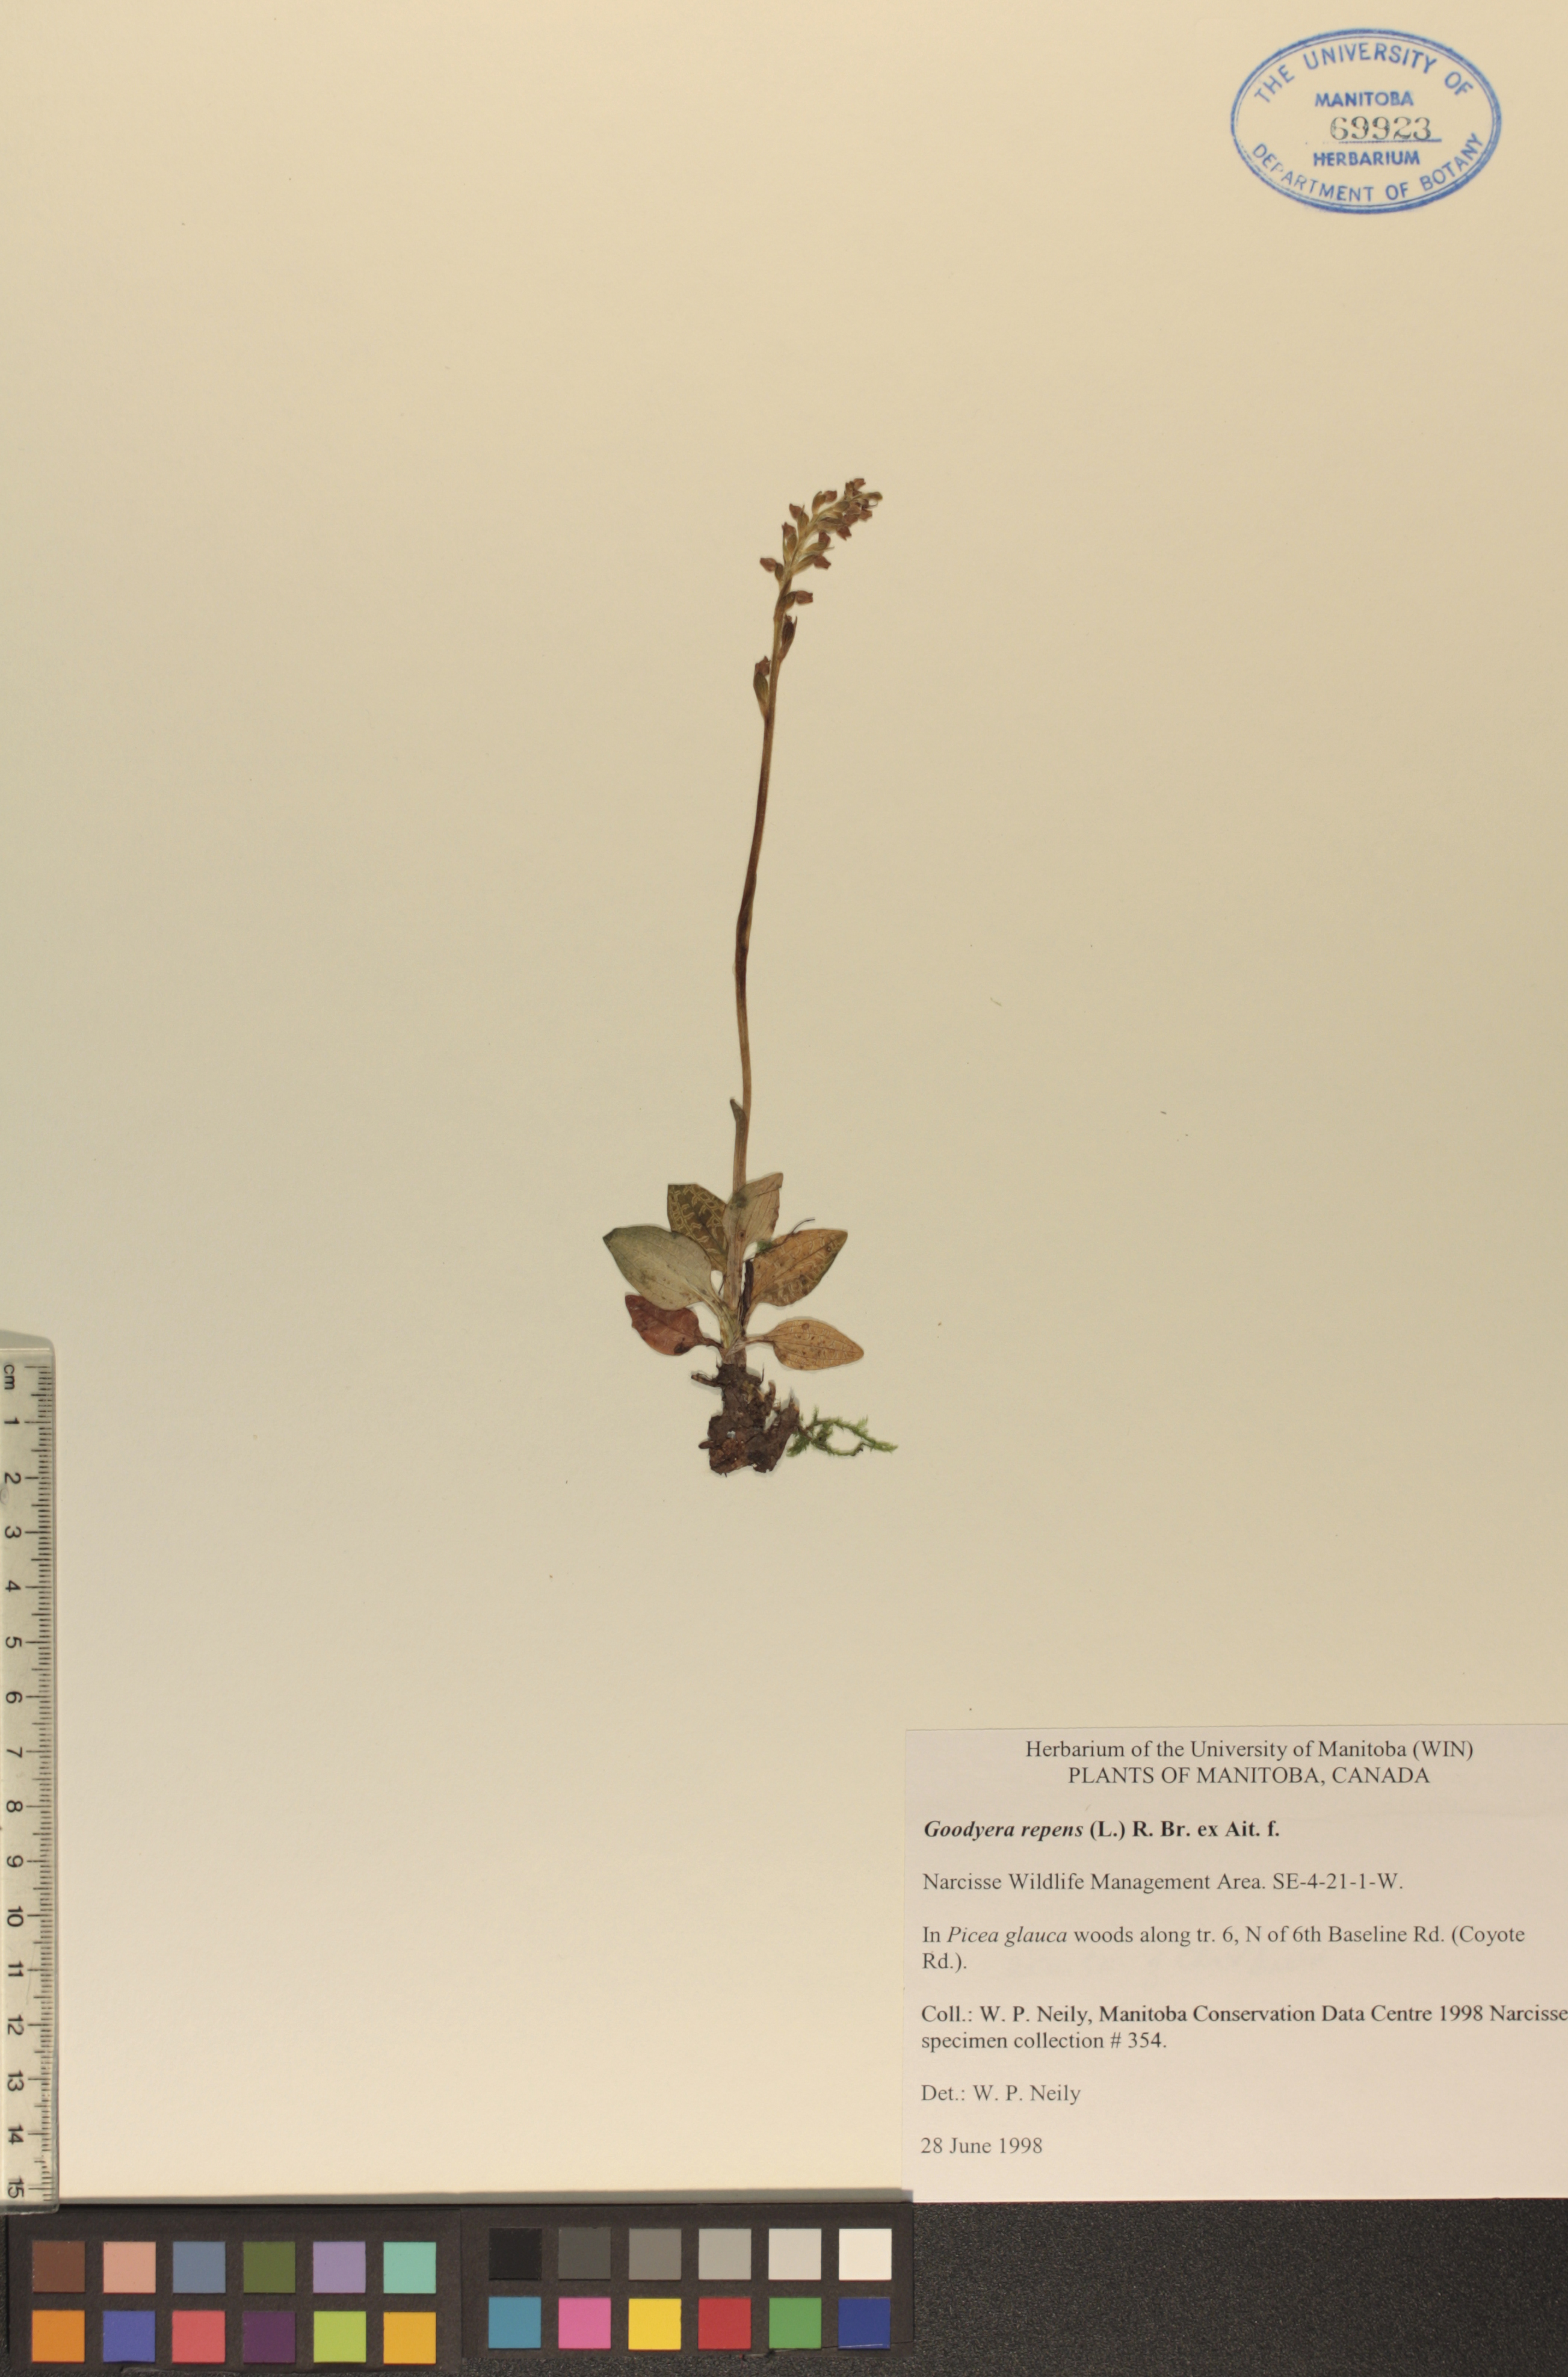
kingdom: Plantae
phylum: Tracheophyta
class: Liliopsida
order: Asparagales
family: Orchidaceae
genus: Goodyera
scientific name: Goodyera repens
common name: Creeping lady's-tresses
